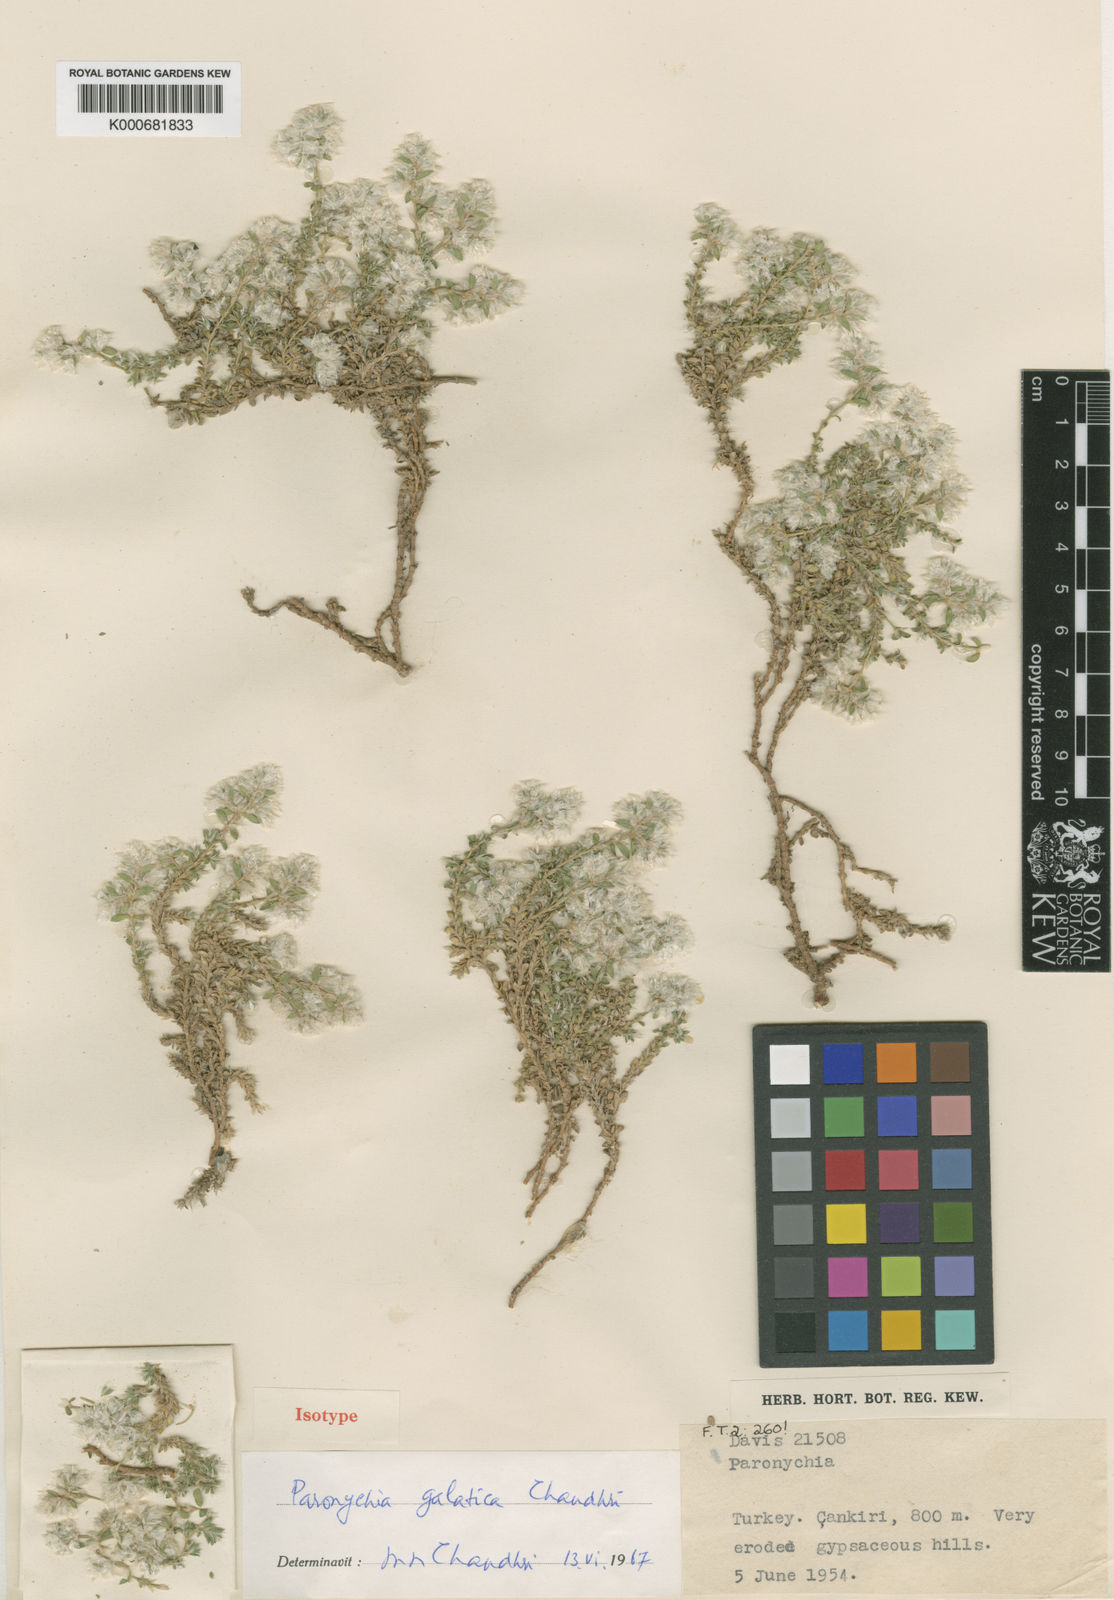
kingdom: Plantae
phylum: Tracheophyta
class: Magnoliopsida
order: Caryophyllales
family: Caryophyllaceae
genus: Paronychia
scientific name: Paronychia galatica
